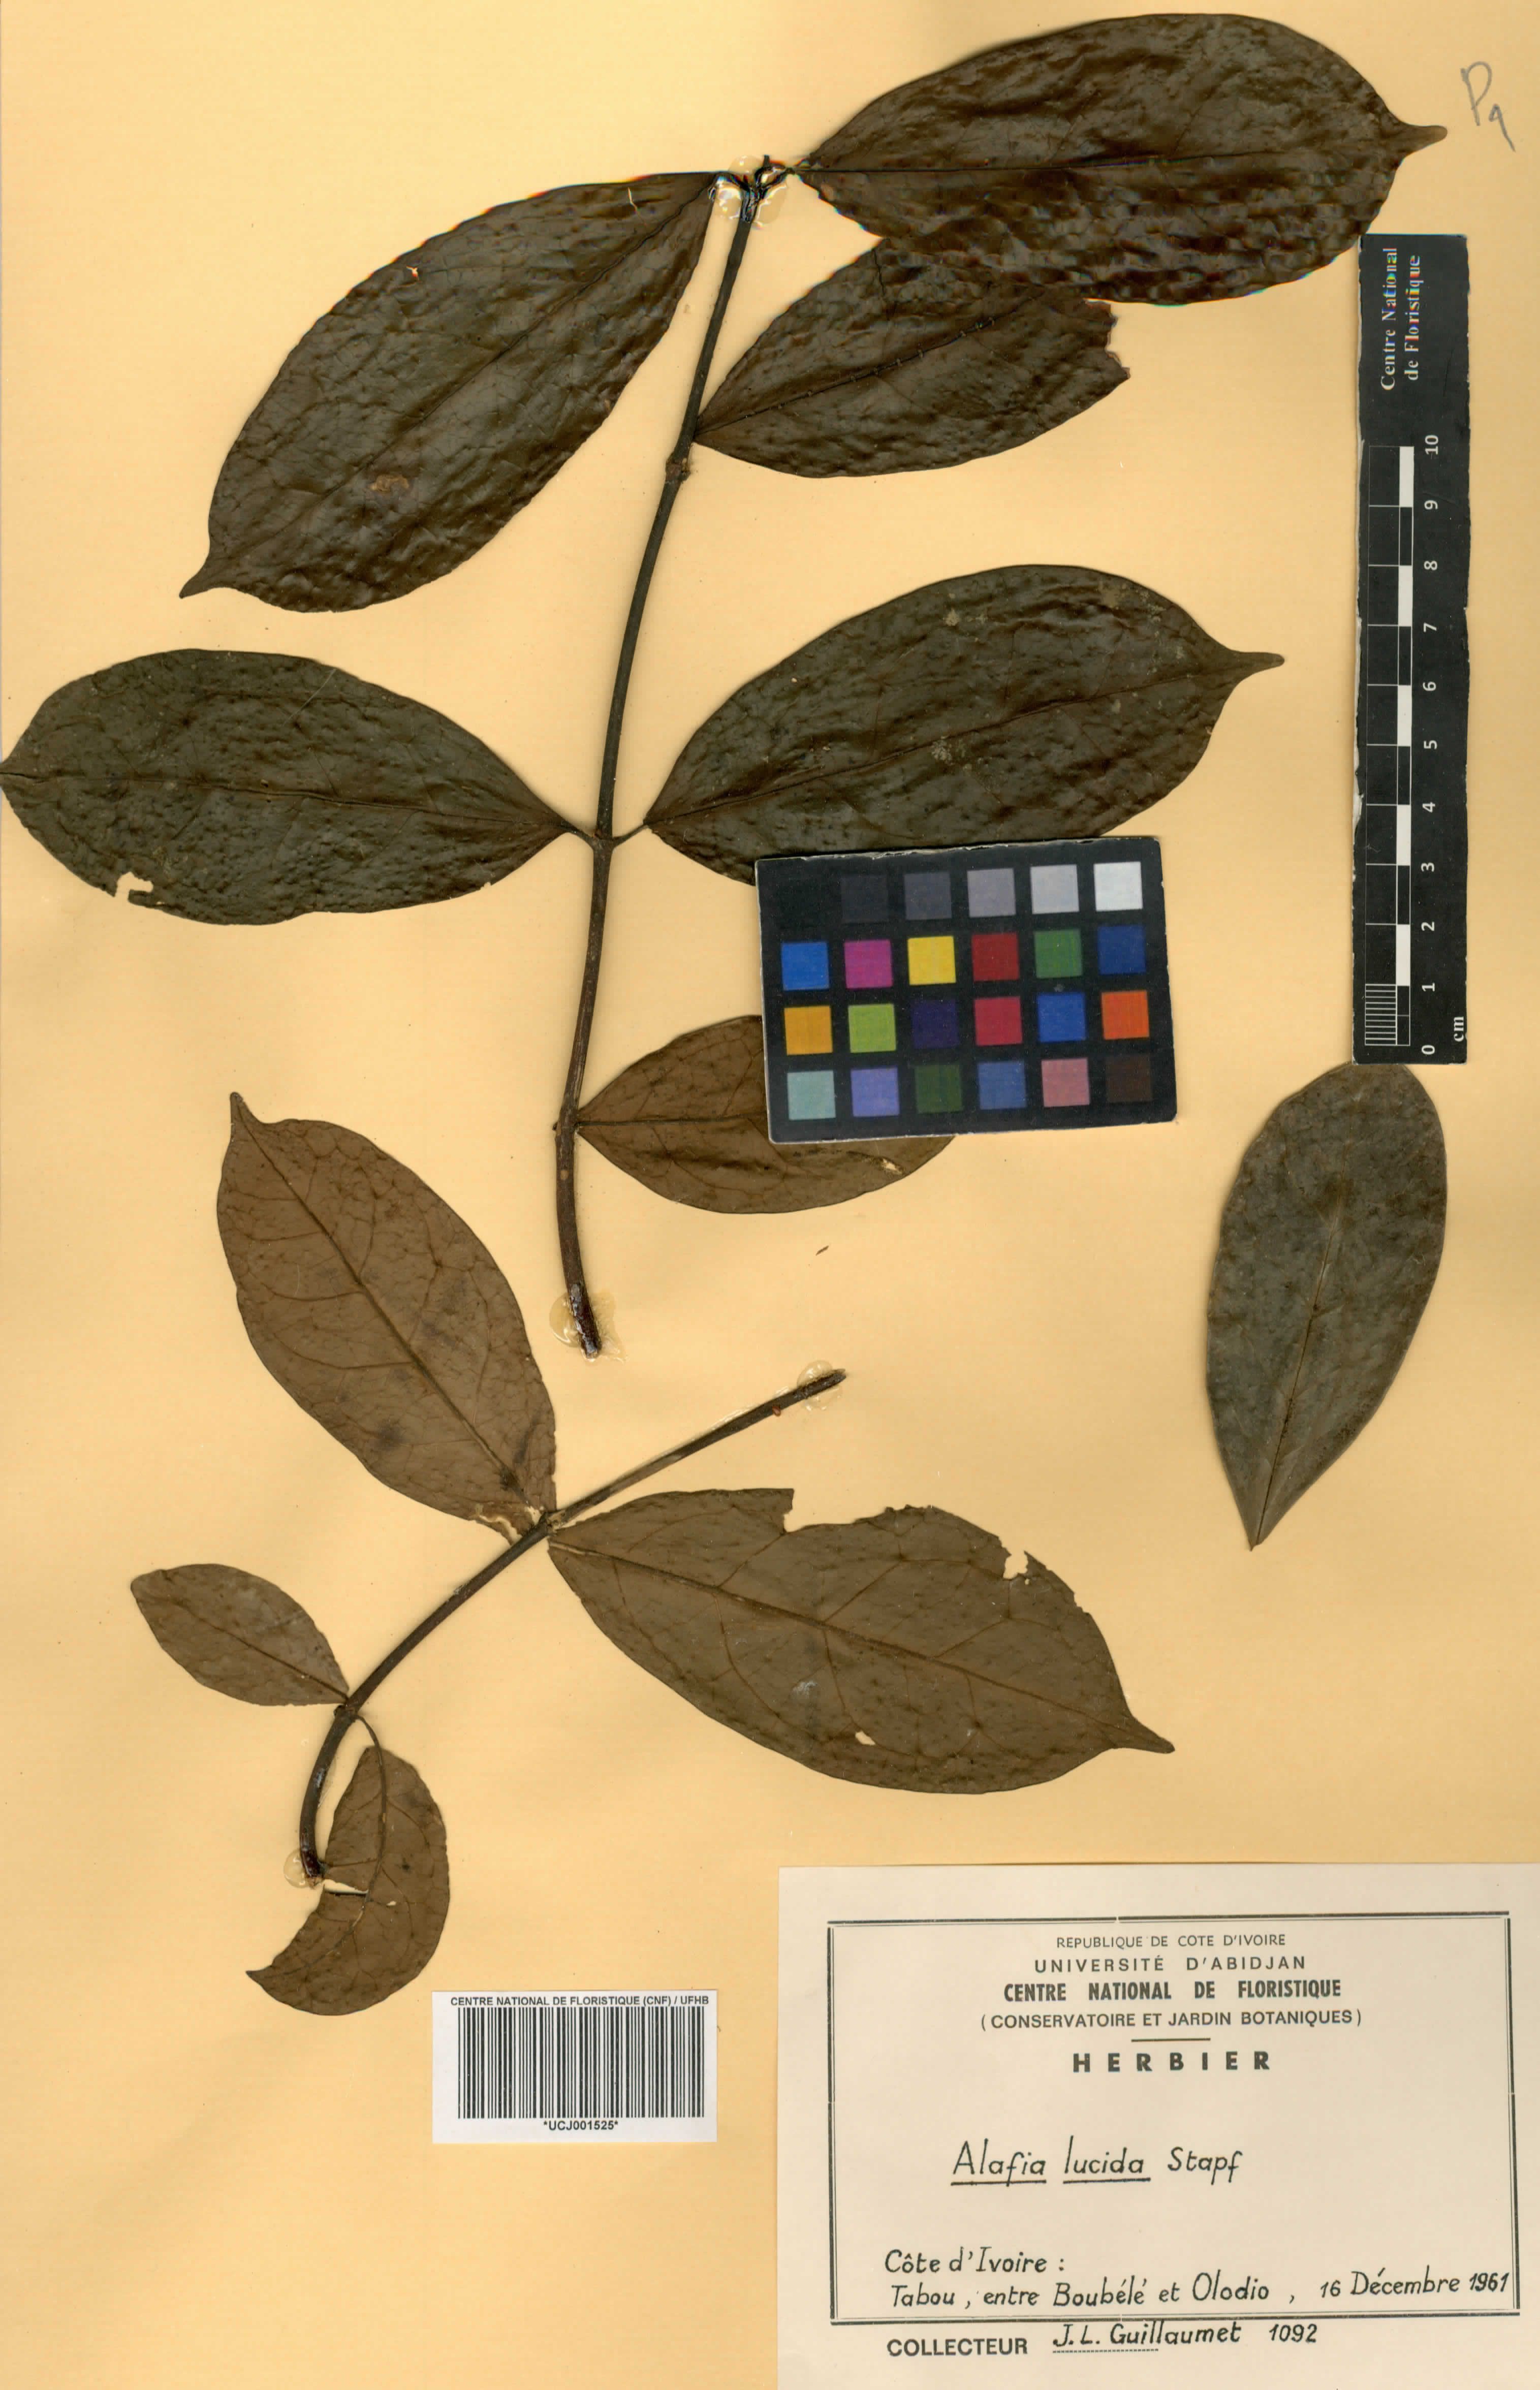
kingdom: Plantae
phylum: Tracheophyta
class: Magnoliopsida
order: Gentianales
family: Apocynaceae
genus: Alafia
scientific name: Alafia lucida
